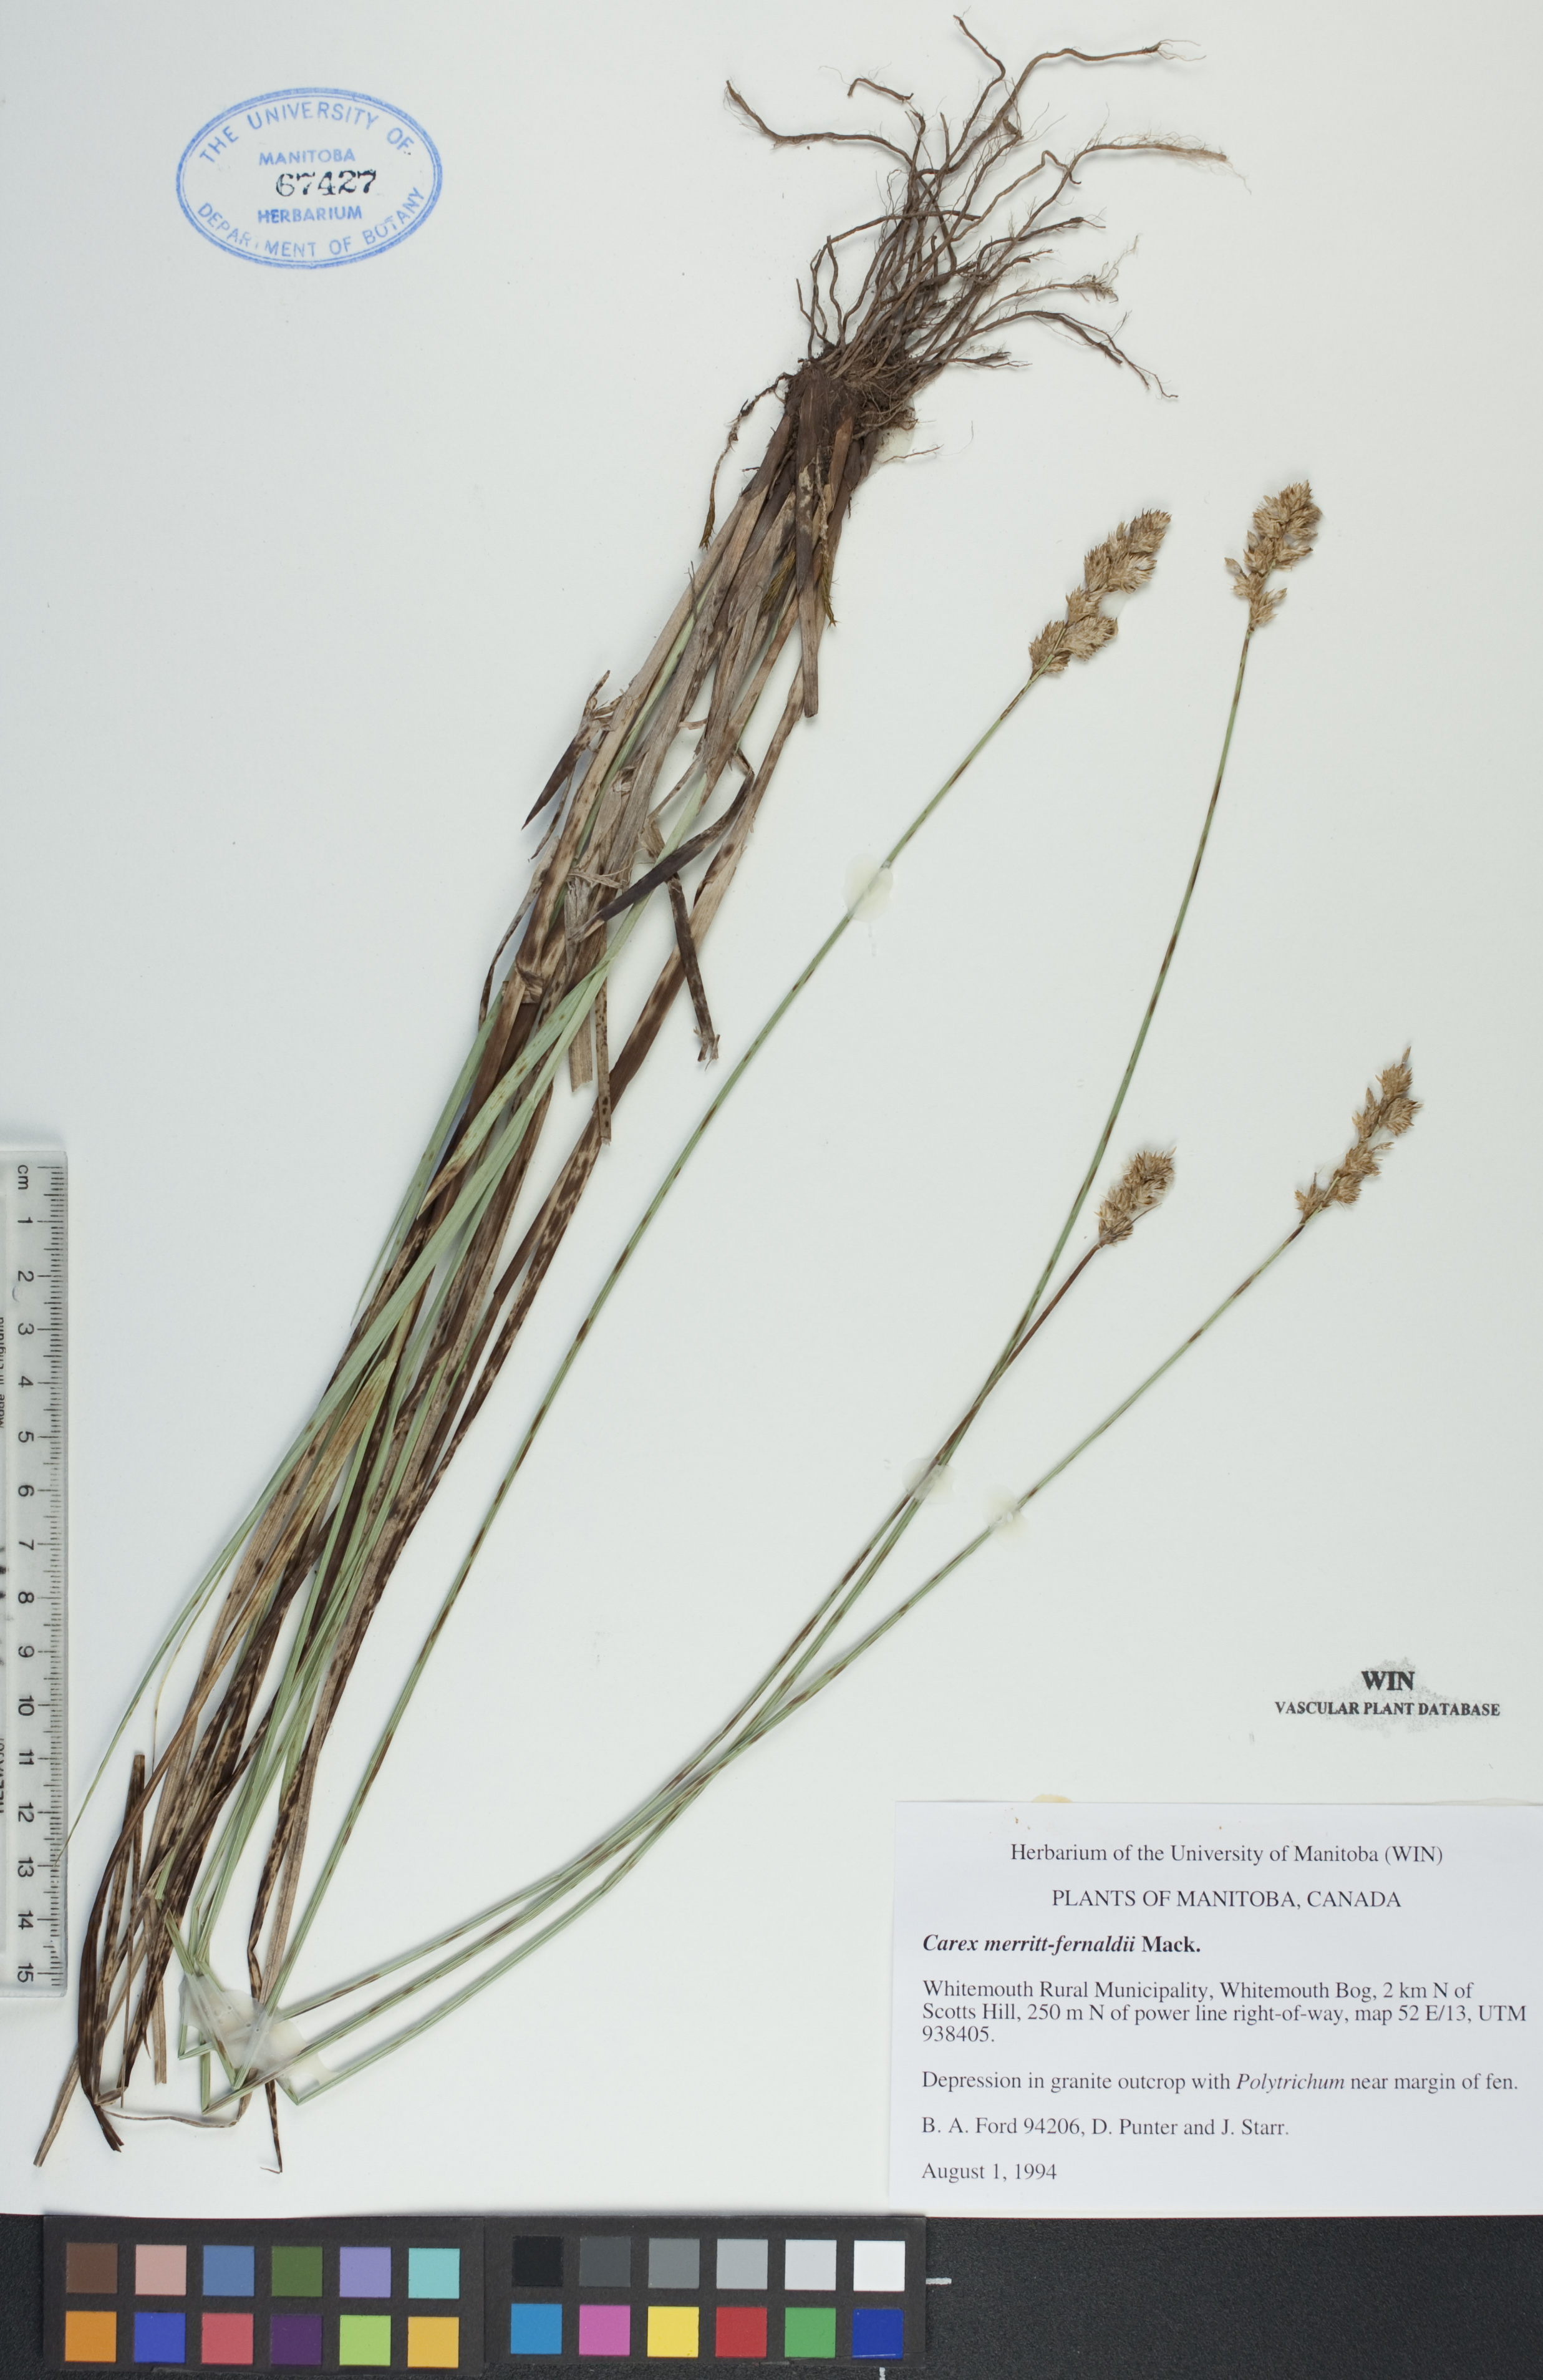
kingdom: Plantae
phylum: Tracheophyta
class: Liliopsida
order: Poales
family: Cyperaceae
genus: Carex
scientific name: Carex merritt-fernaldii
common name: Fernald's oval sedge
